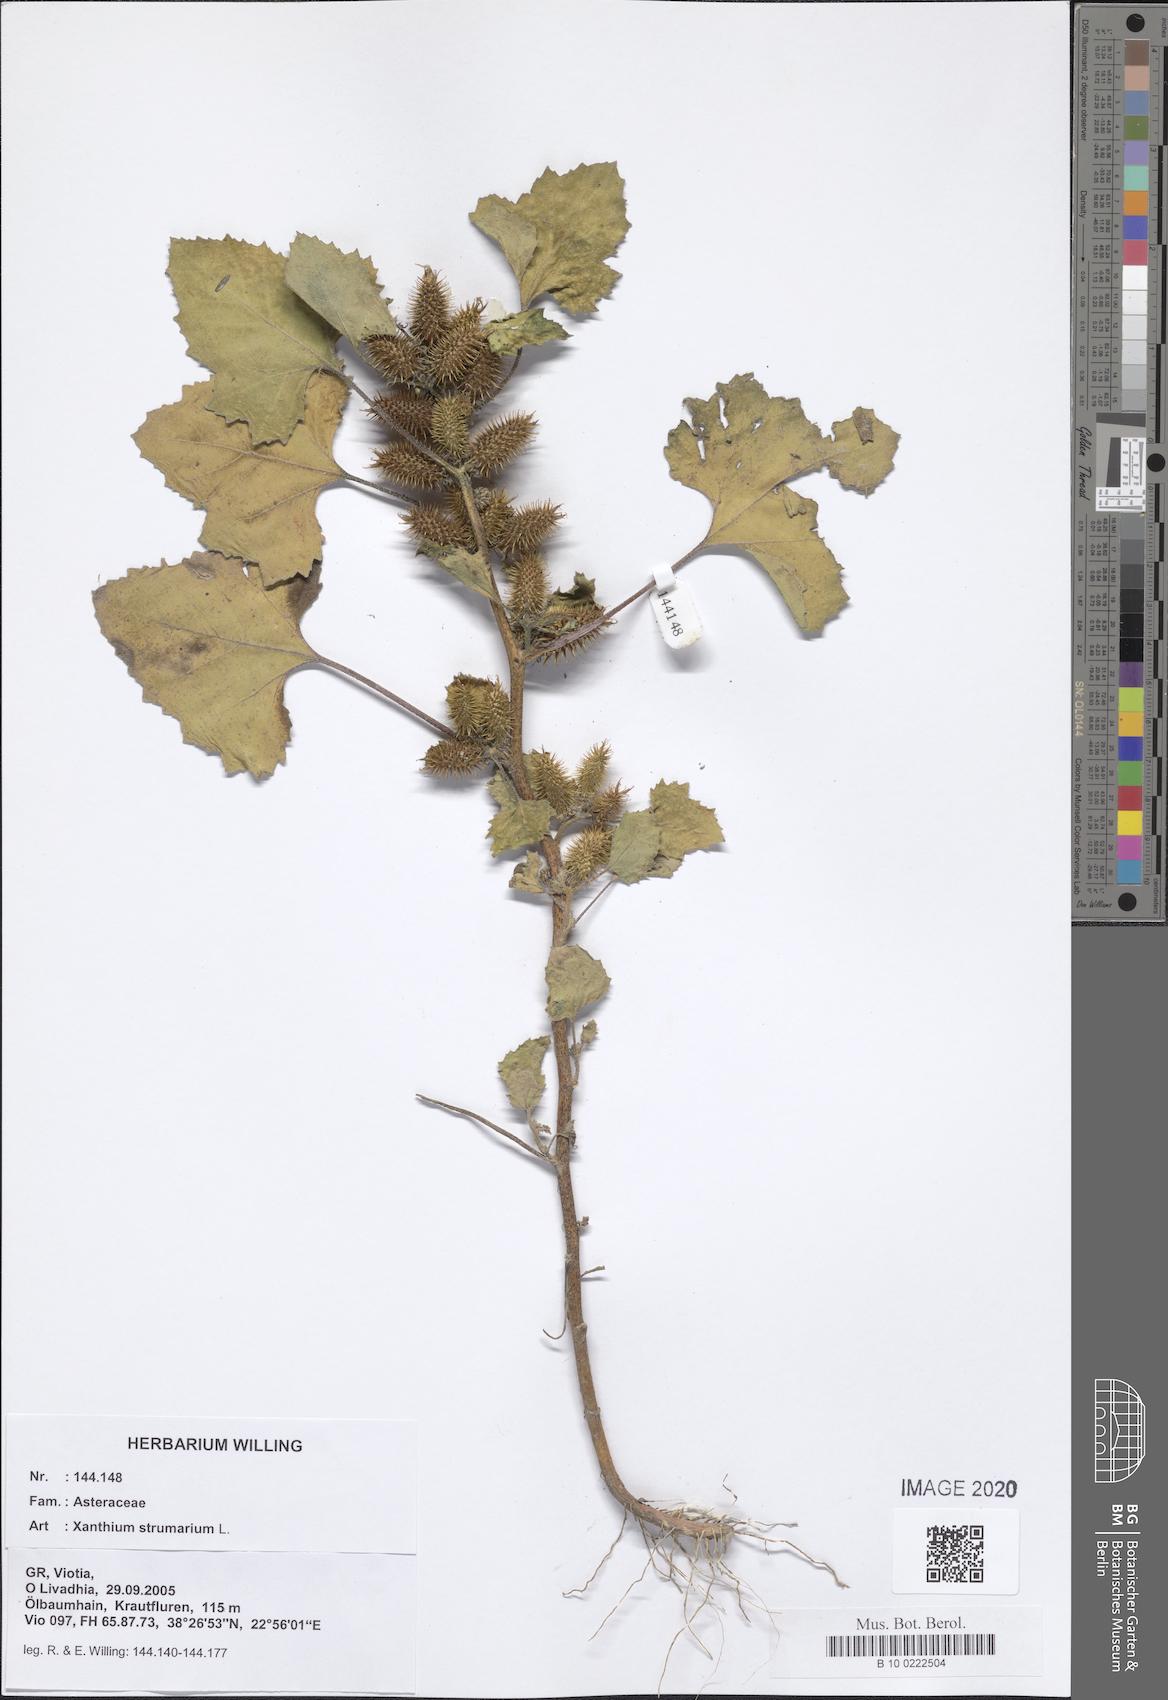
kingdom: Plantae
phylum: Tracheophyta
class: Magnoliopsida
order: Asterales
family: Asteraceae
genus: Xanthium
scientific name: Xanthium strumarium
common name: Rough cocklebur
